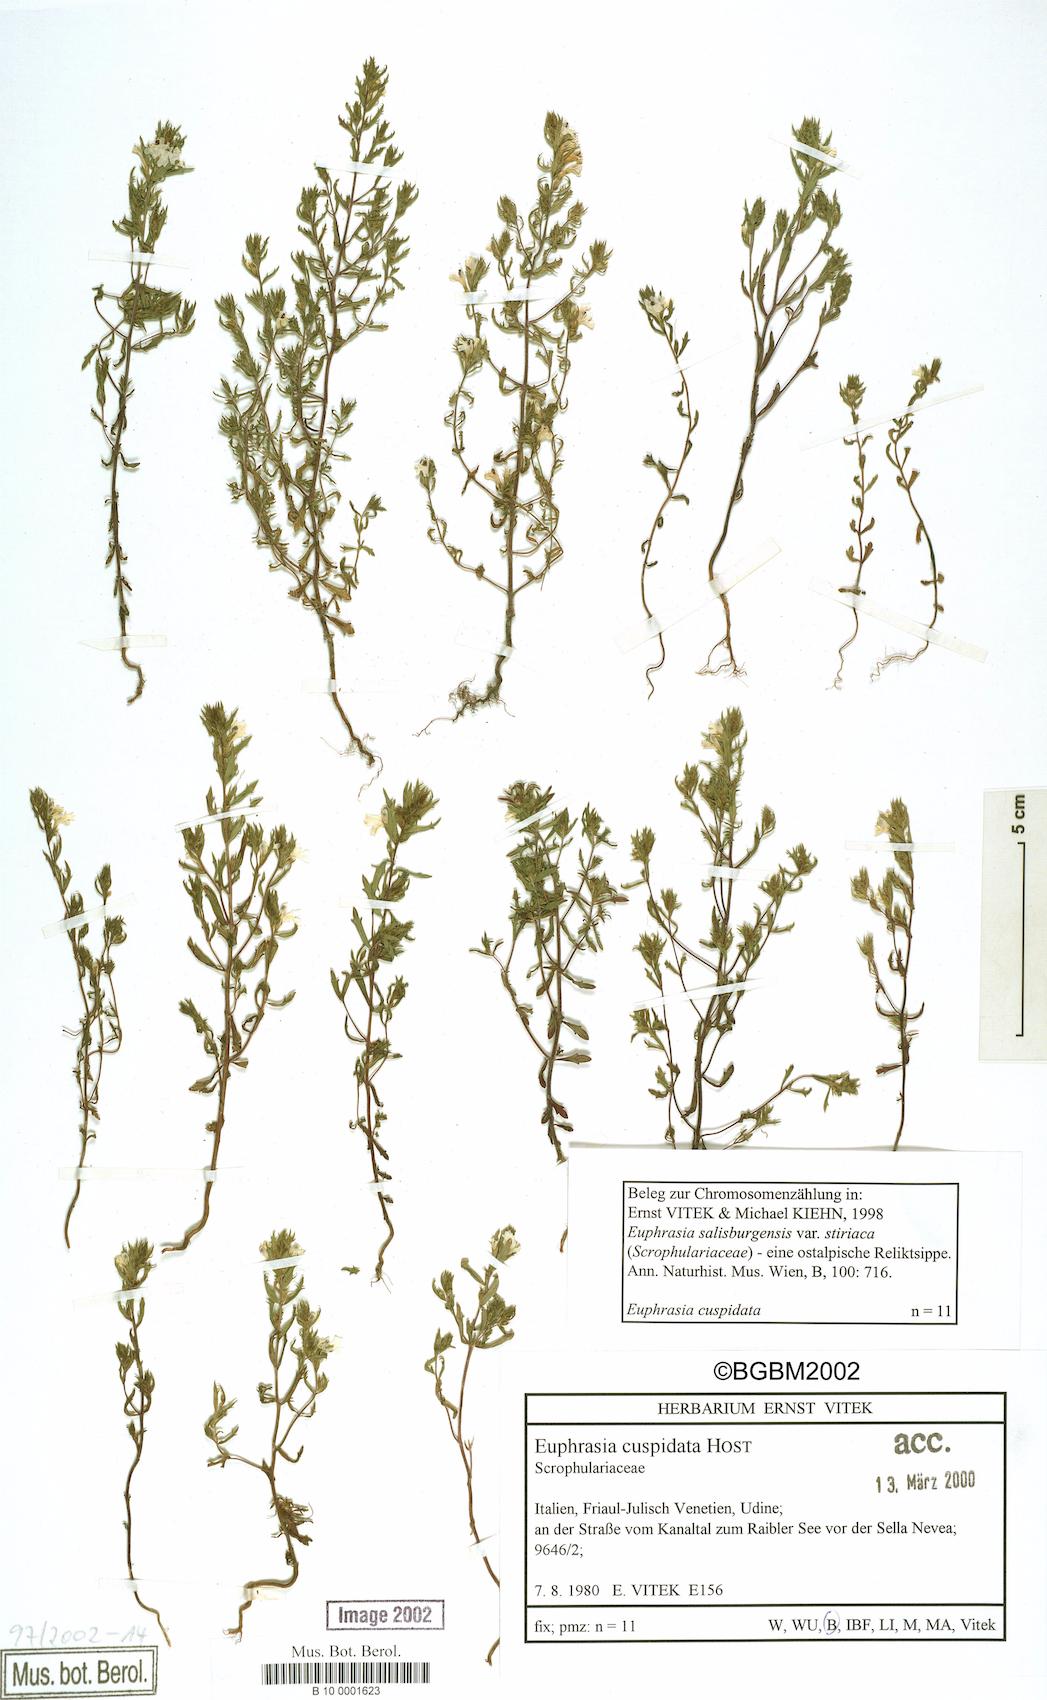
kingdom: Plantae
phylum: Tracheophyta
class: Magnoliopsida
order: Lamiales
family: Orobanchaceae
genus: Euphrasia
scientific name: Euphrasia cuspidata
